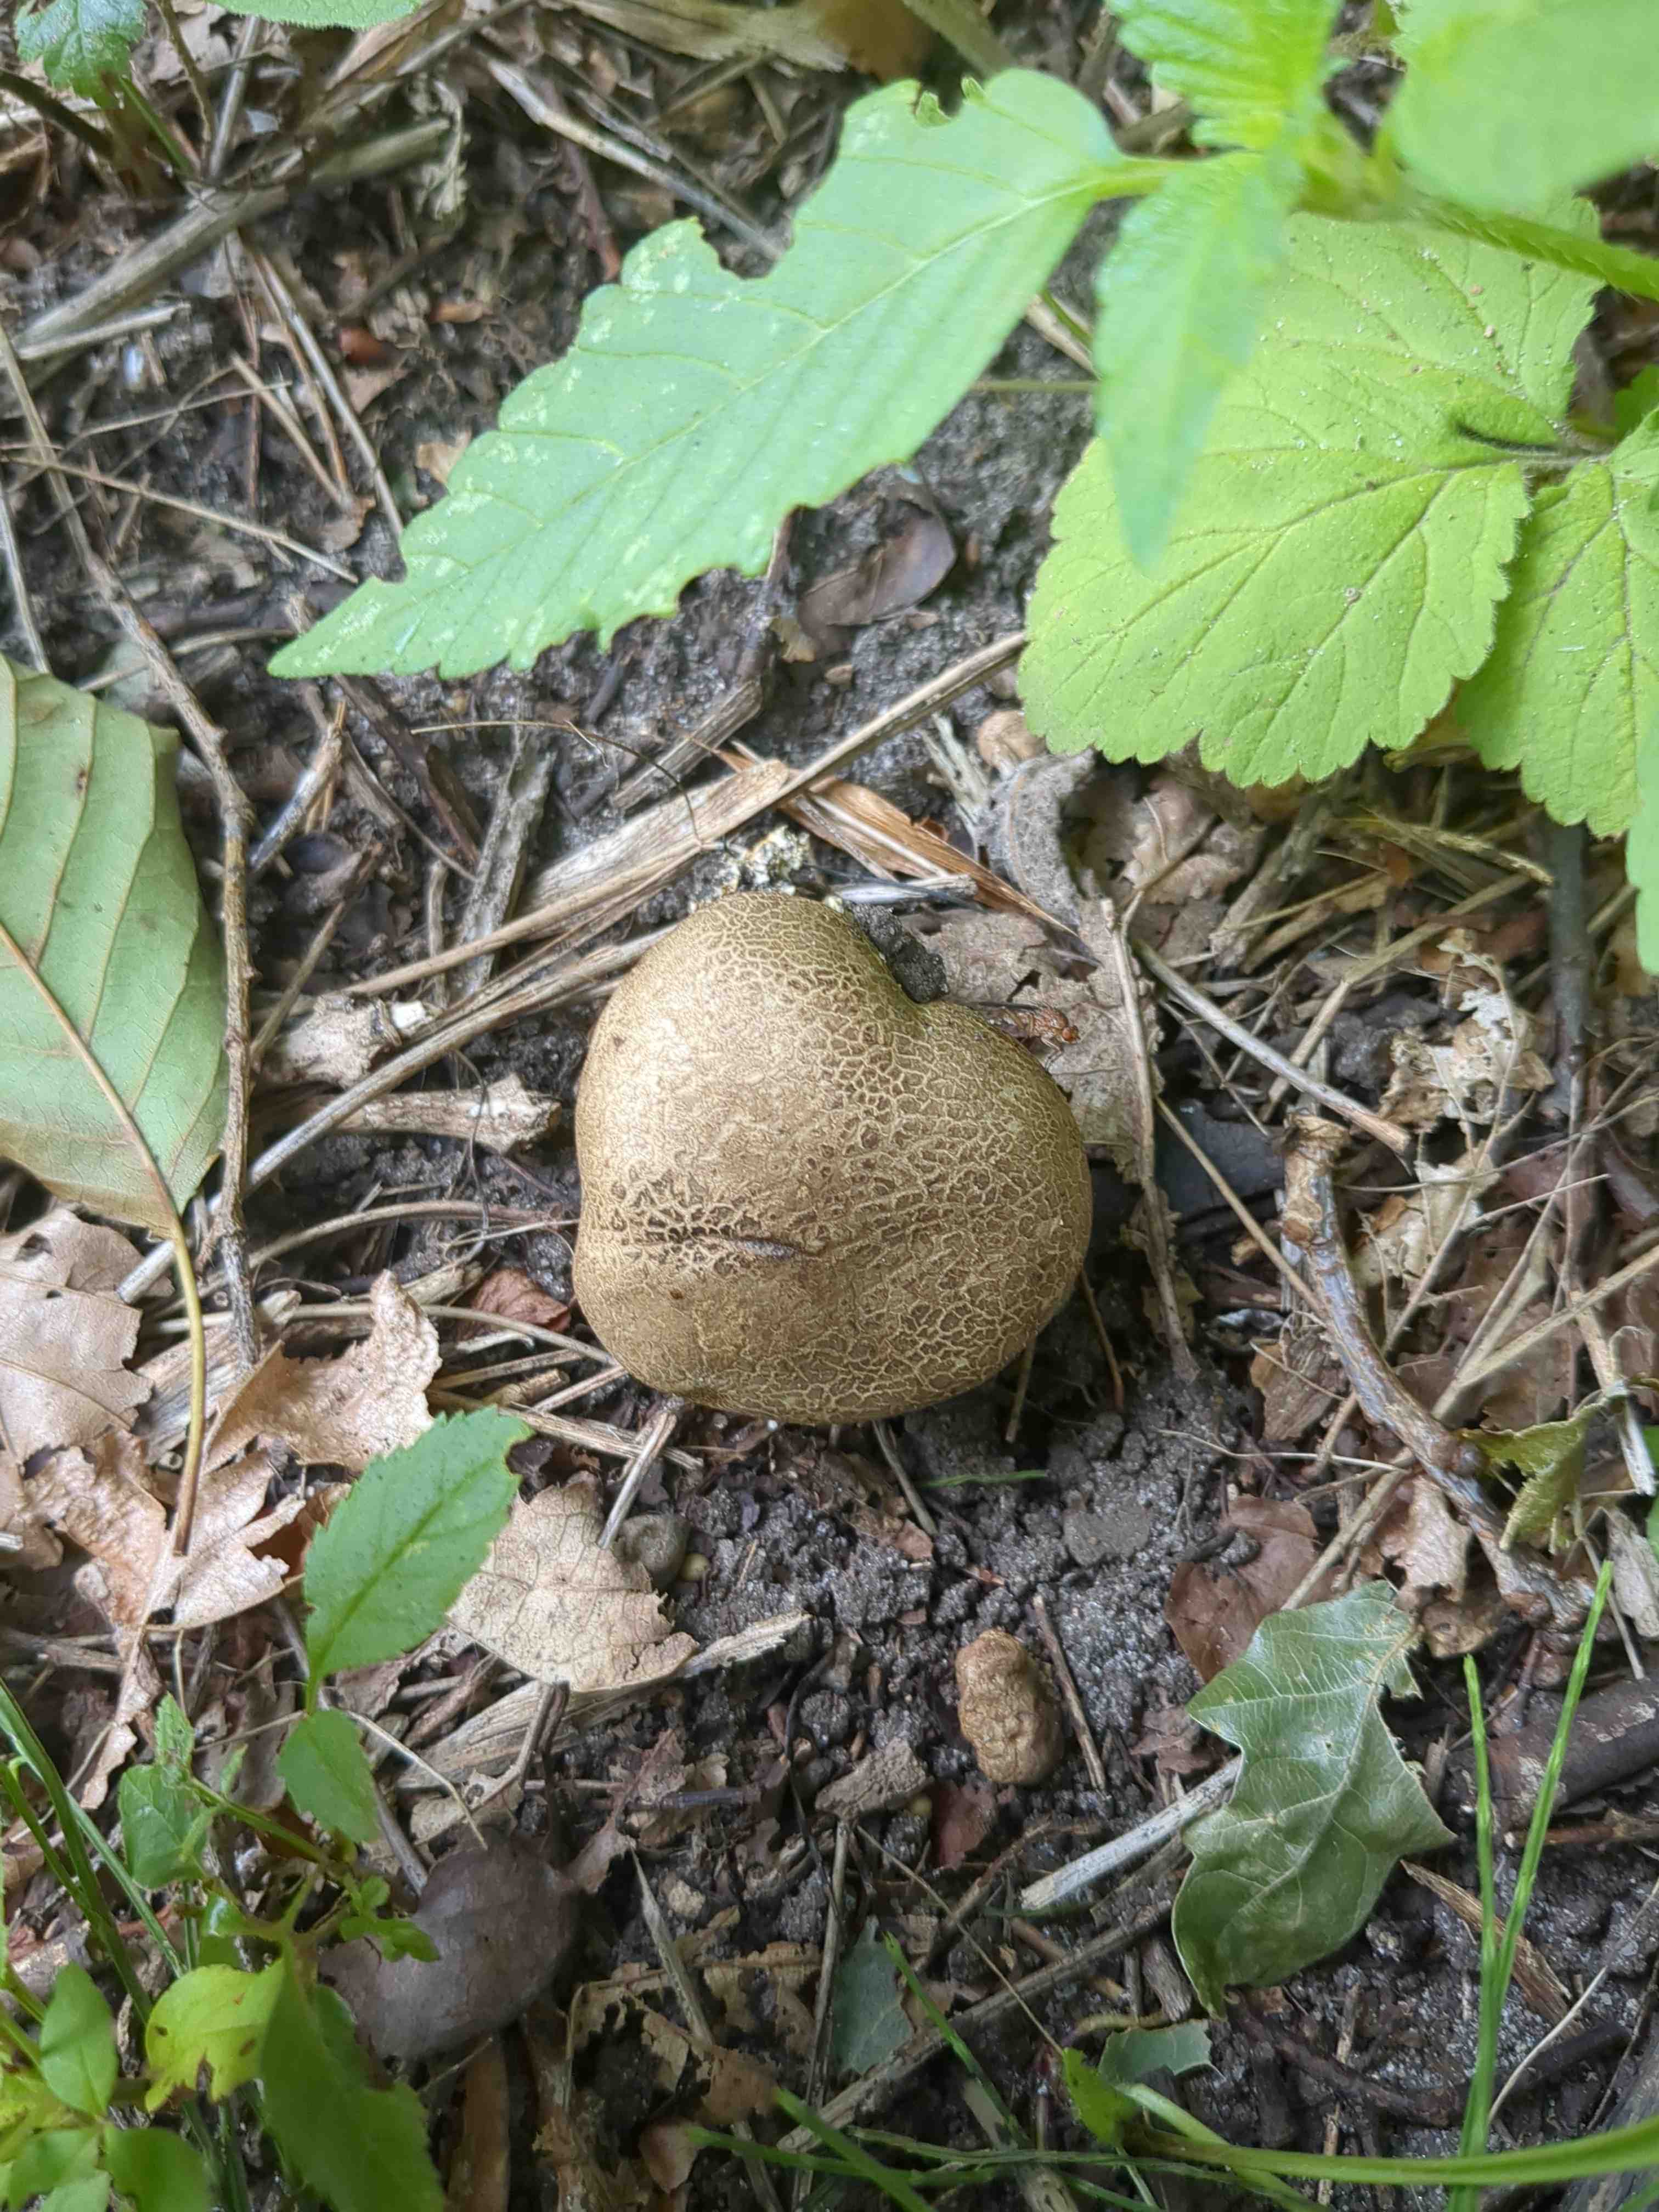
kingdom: Fungi
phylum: Basidiomycota
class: Agaricomycetes
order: Boletales
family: Sclerodermataceae
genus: Scleroderma
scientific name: Scleroderma
